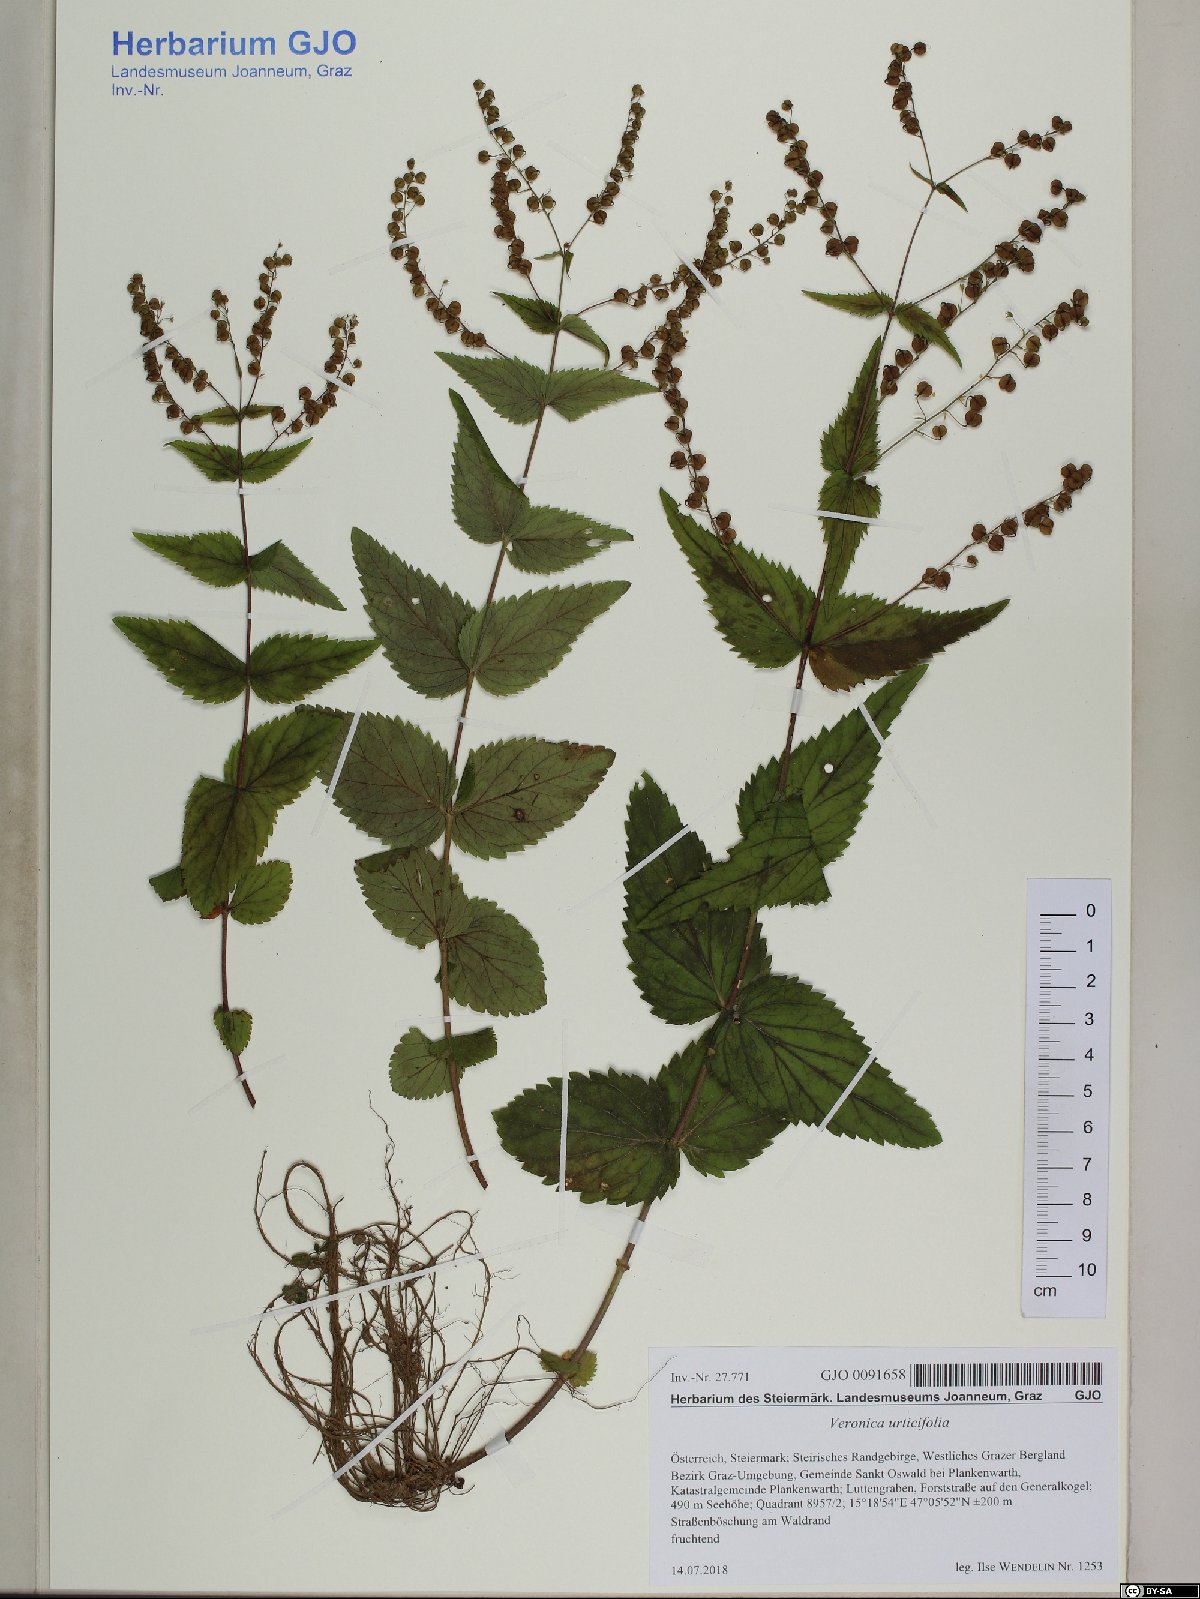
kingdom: Plantae
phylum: Tracheophyta
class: Magnoliopsida
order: Lamiales
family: Plantaginaceae
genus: Veronica
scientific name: Veronica urticifolia
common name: Nettle-leaf speedwell
